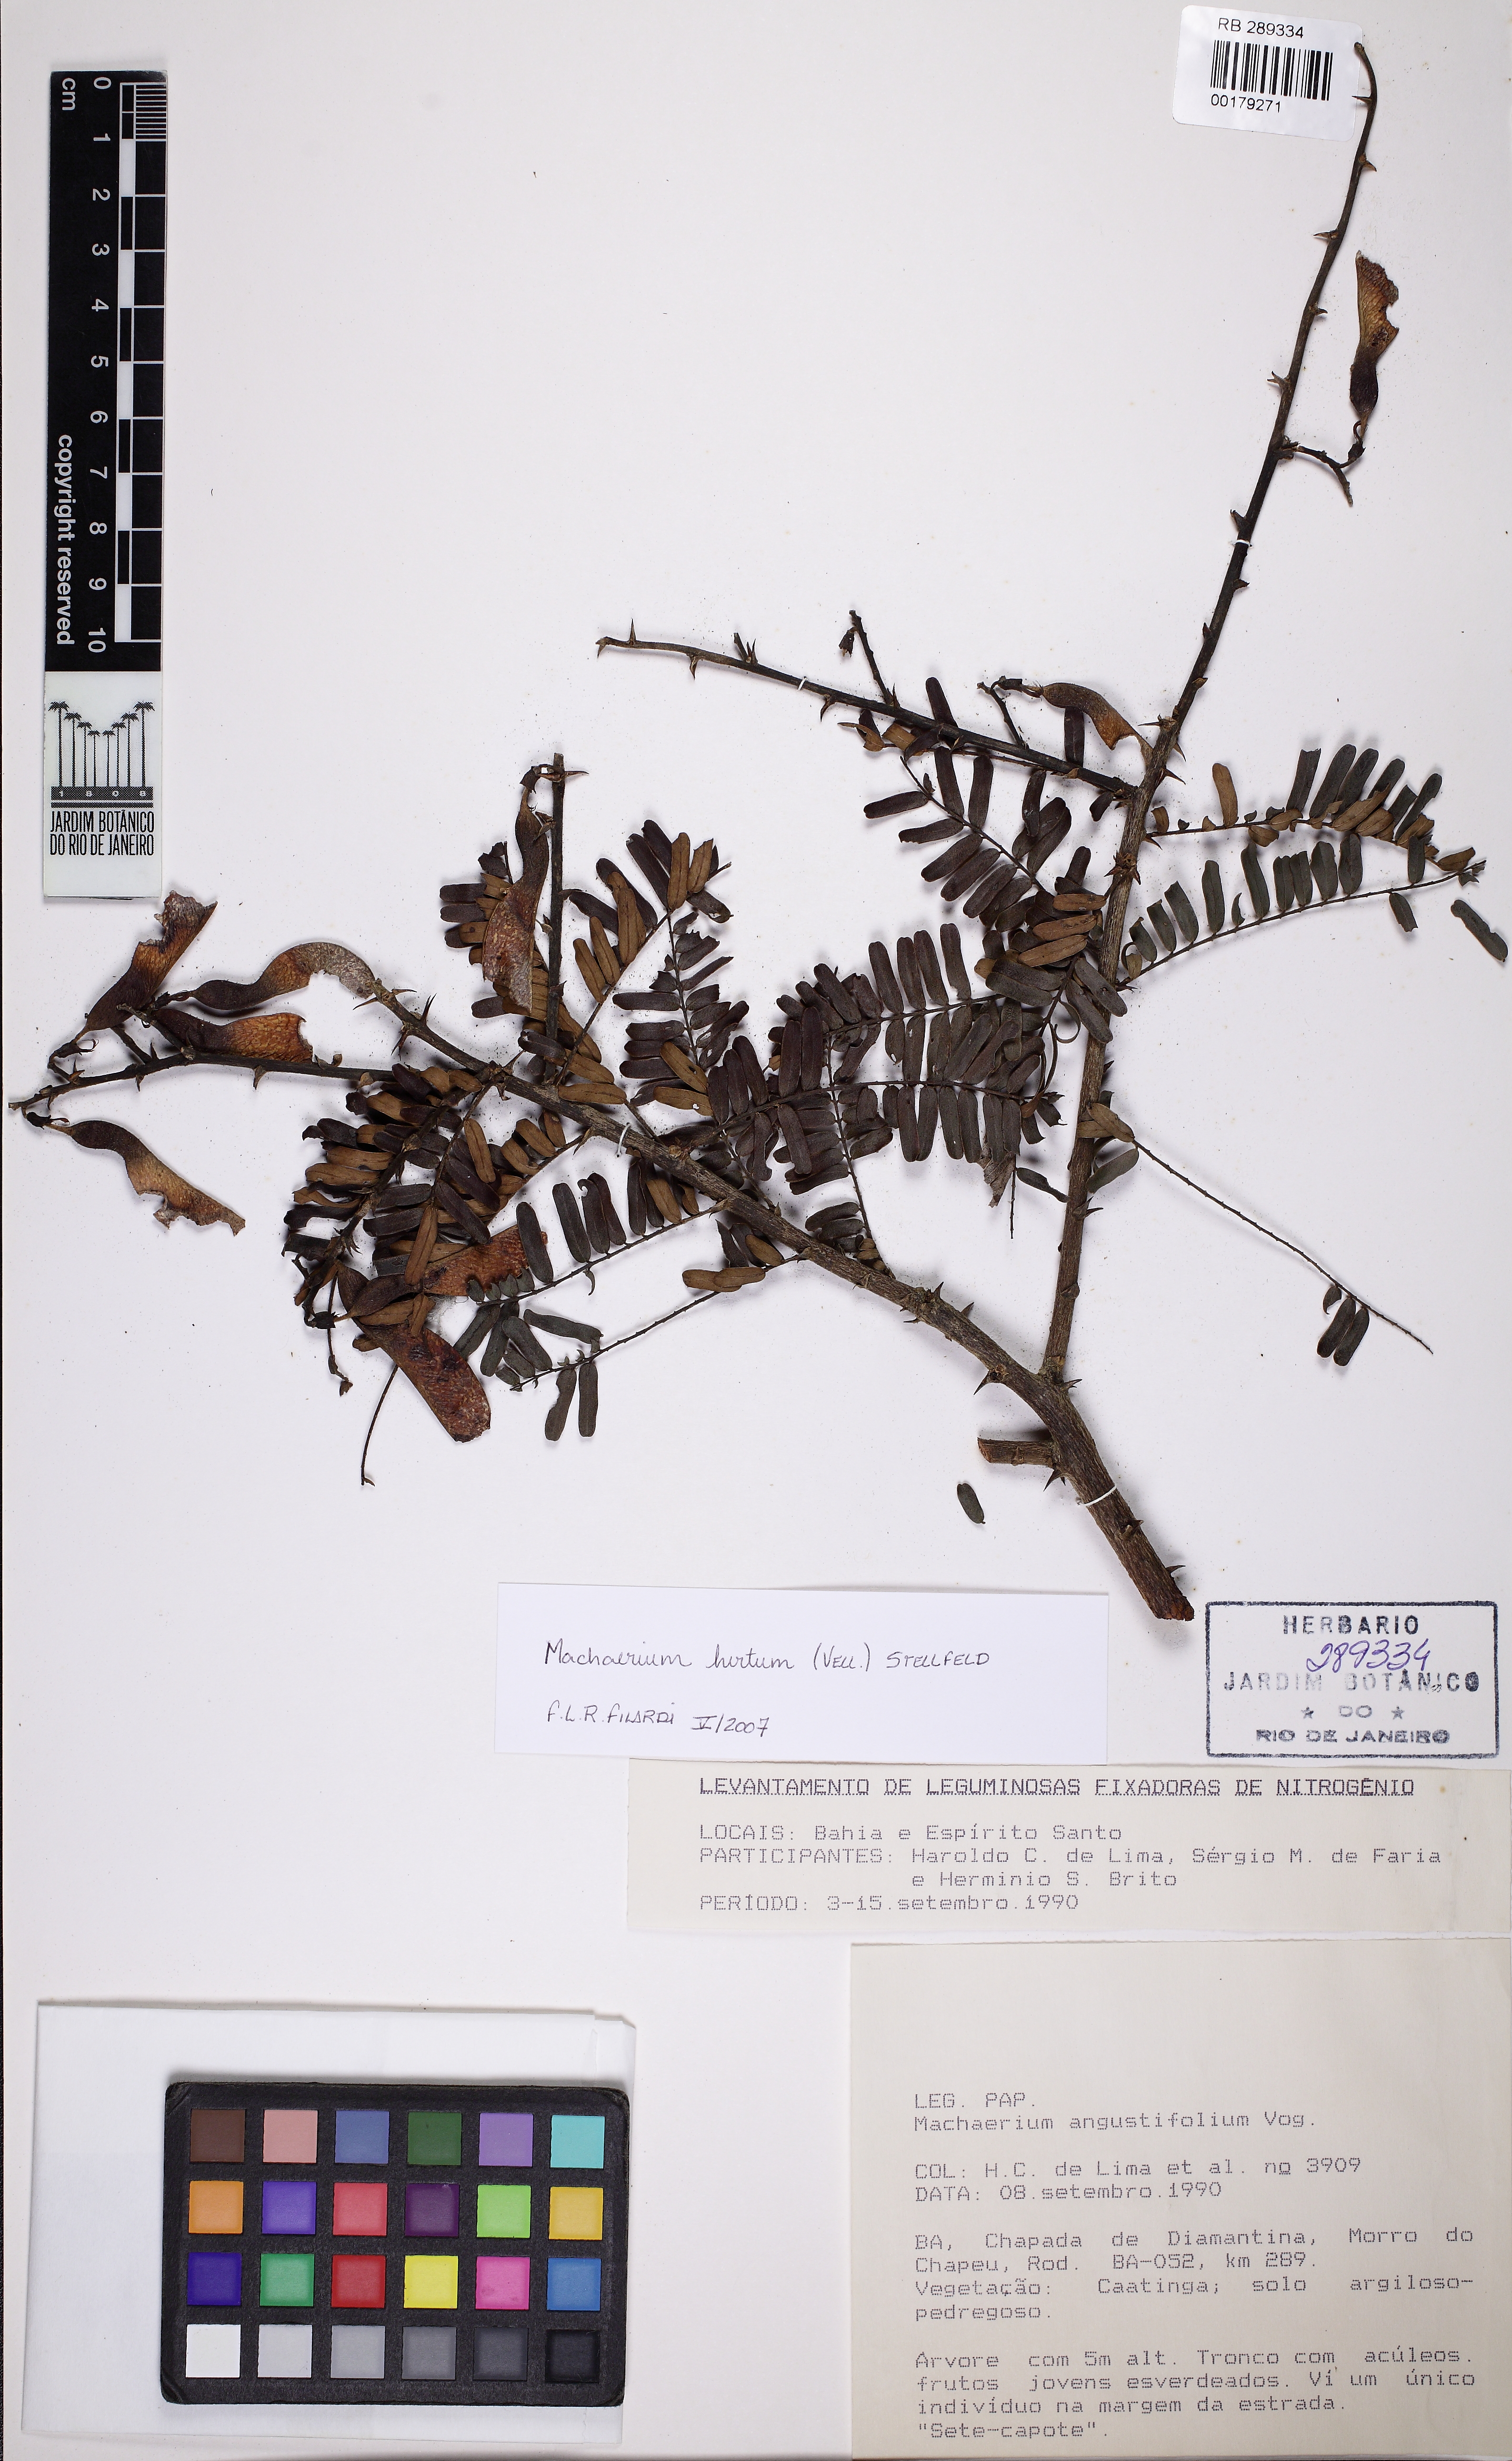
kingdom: Plantae
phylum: Tracheophyta
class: Magnoliopsida
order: Fabales
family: Fabaceae
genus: Machaerium
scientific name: Machaerium hirtum
